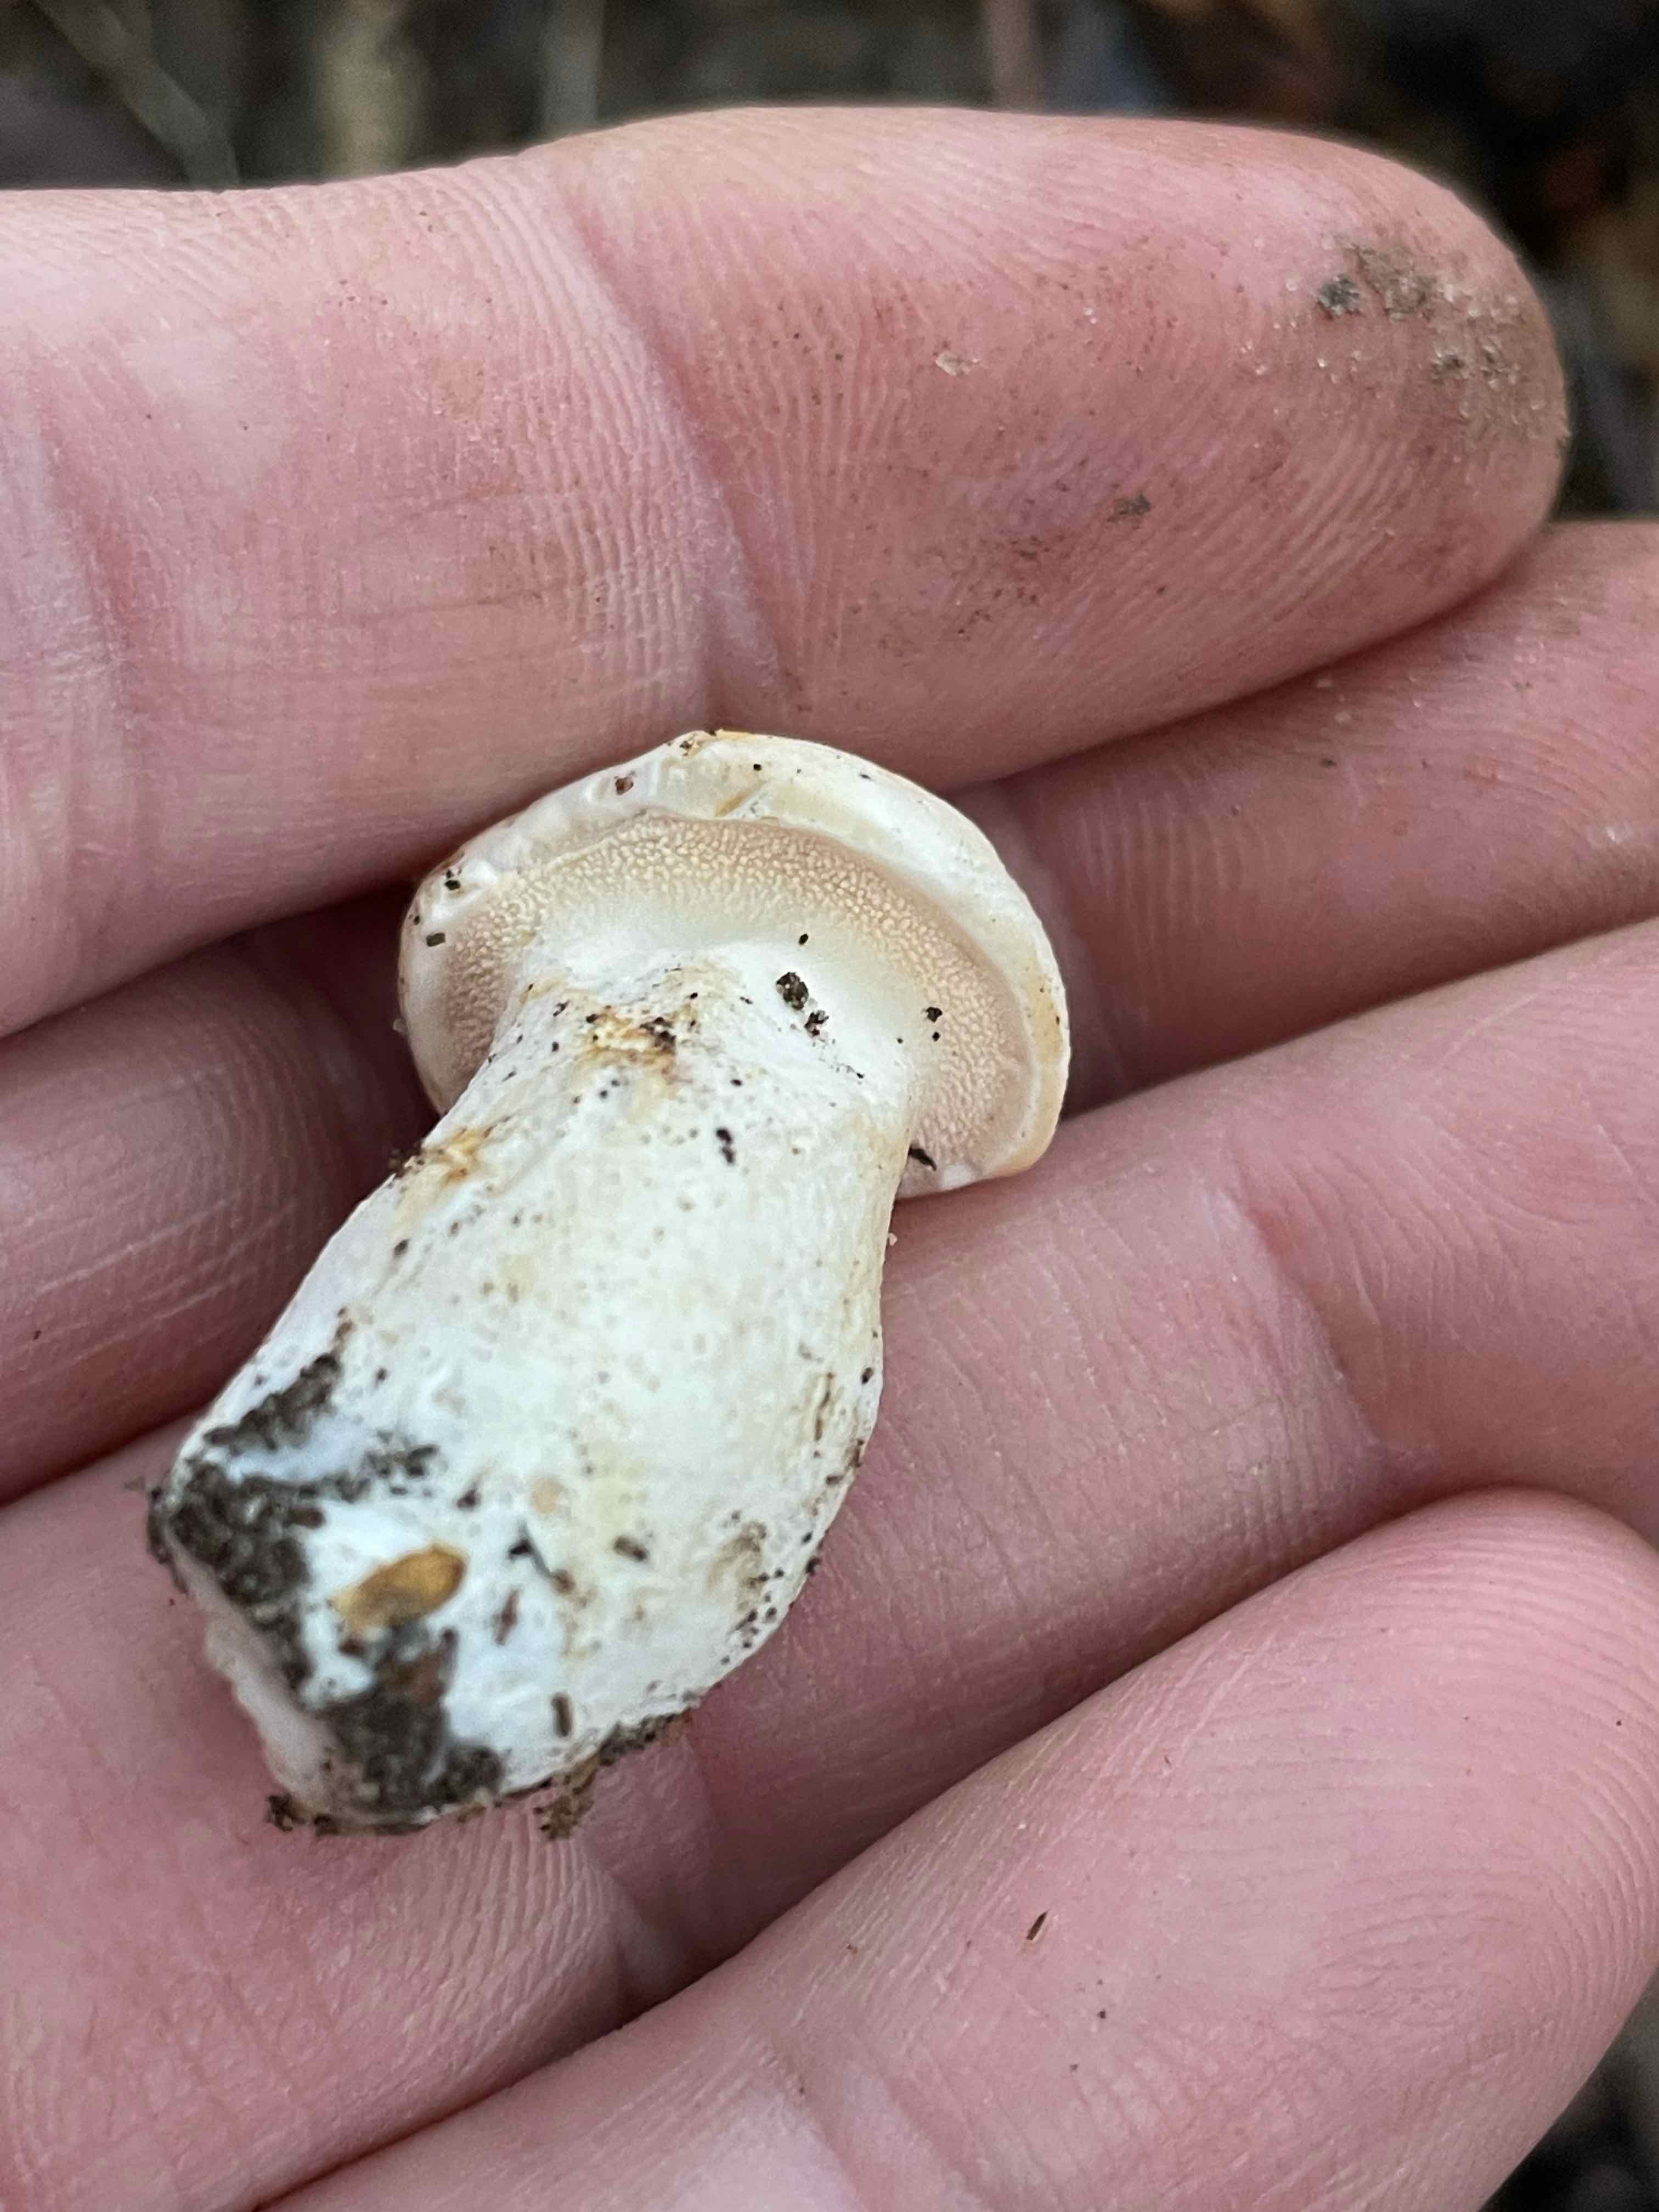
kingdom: Fungi
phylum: Basidiomycota
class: Agaricomycetes
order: Cantharellales
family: Hydnaceae
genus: Hydnum
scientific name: Hydnum
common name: pigsvamp
